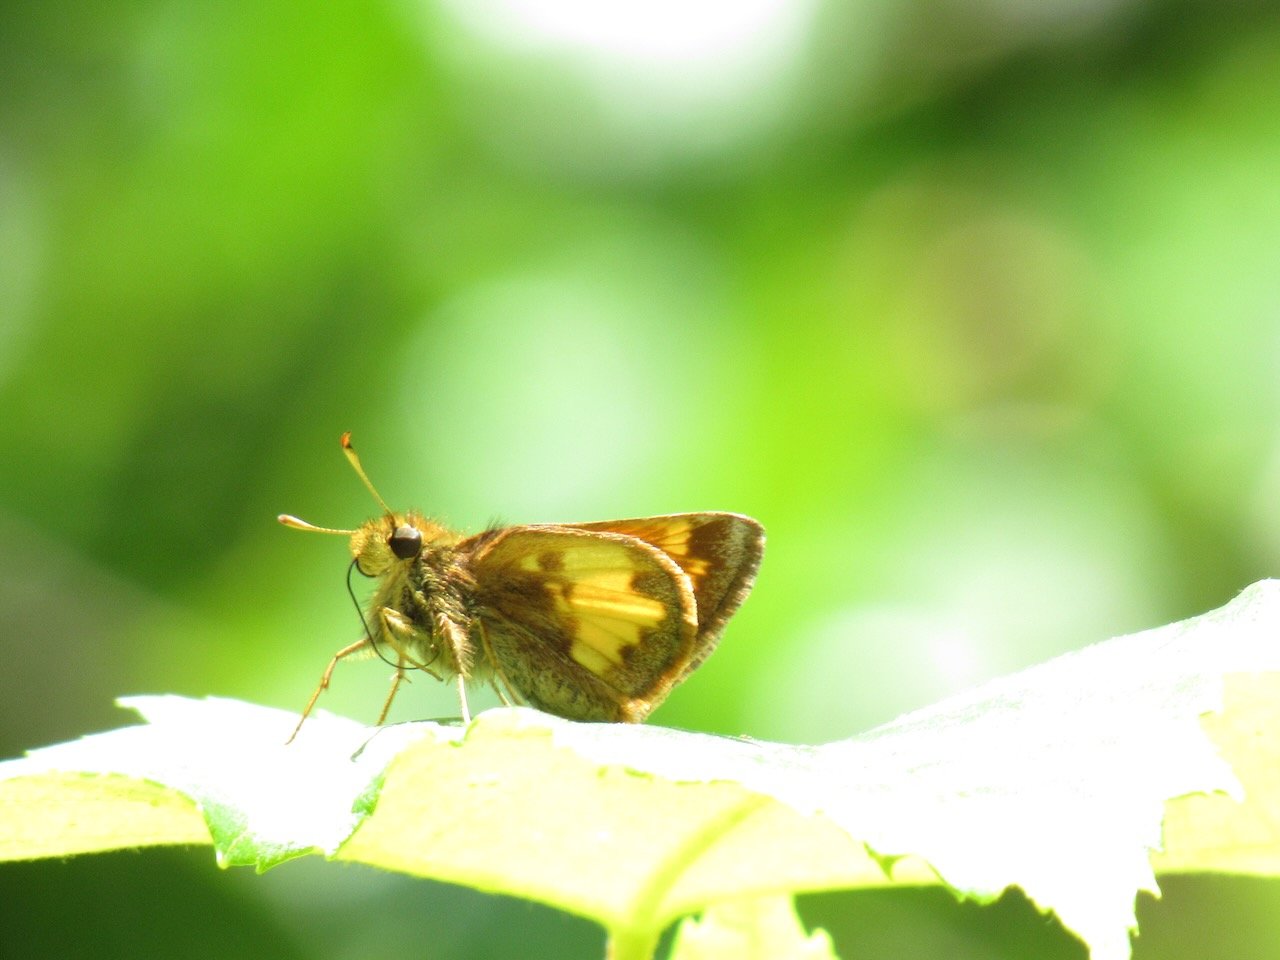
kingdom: Animalia
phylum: Arthropoda
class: Insecta
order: Lepidoptera
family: Hesperiidae
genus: Lon
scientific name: Lon hobomok
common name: Hobomok Skipper
